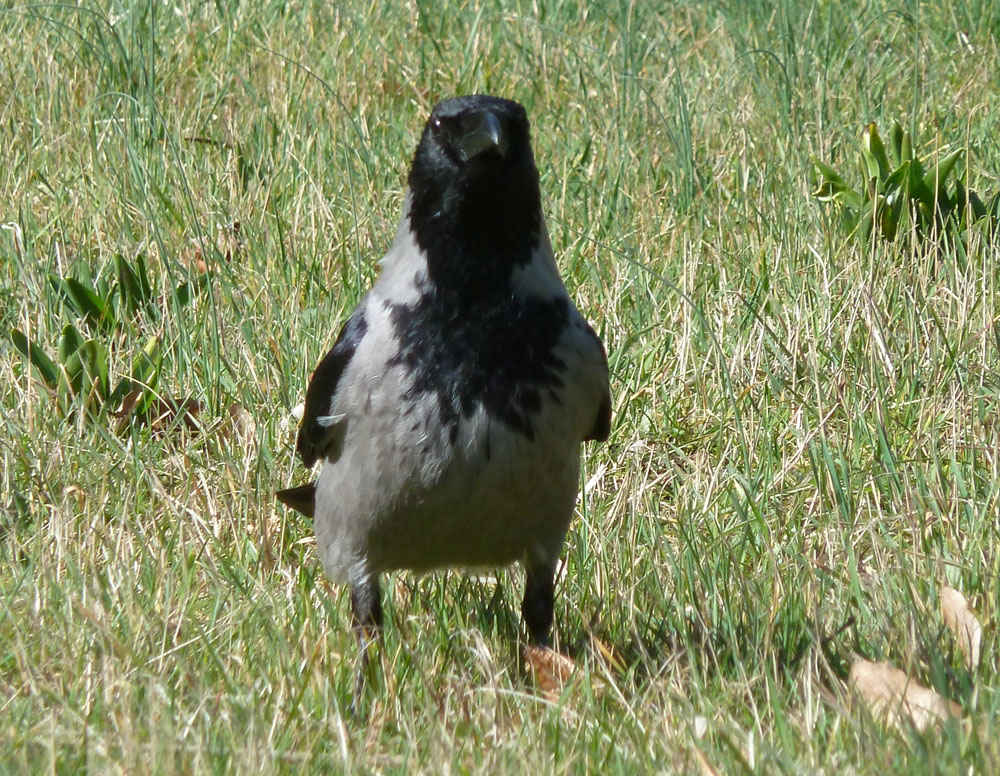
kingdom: Animalia
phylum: Chordata
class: Aves
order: Passeriformes
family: Corvidae
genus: Corvus
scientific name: Corvus cornix
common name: Hooded crow
